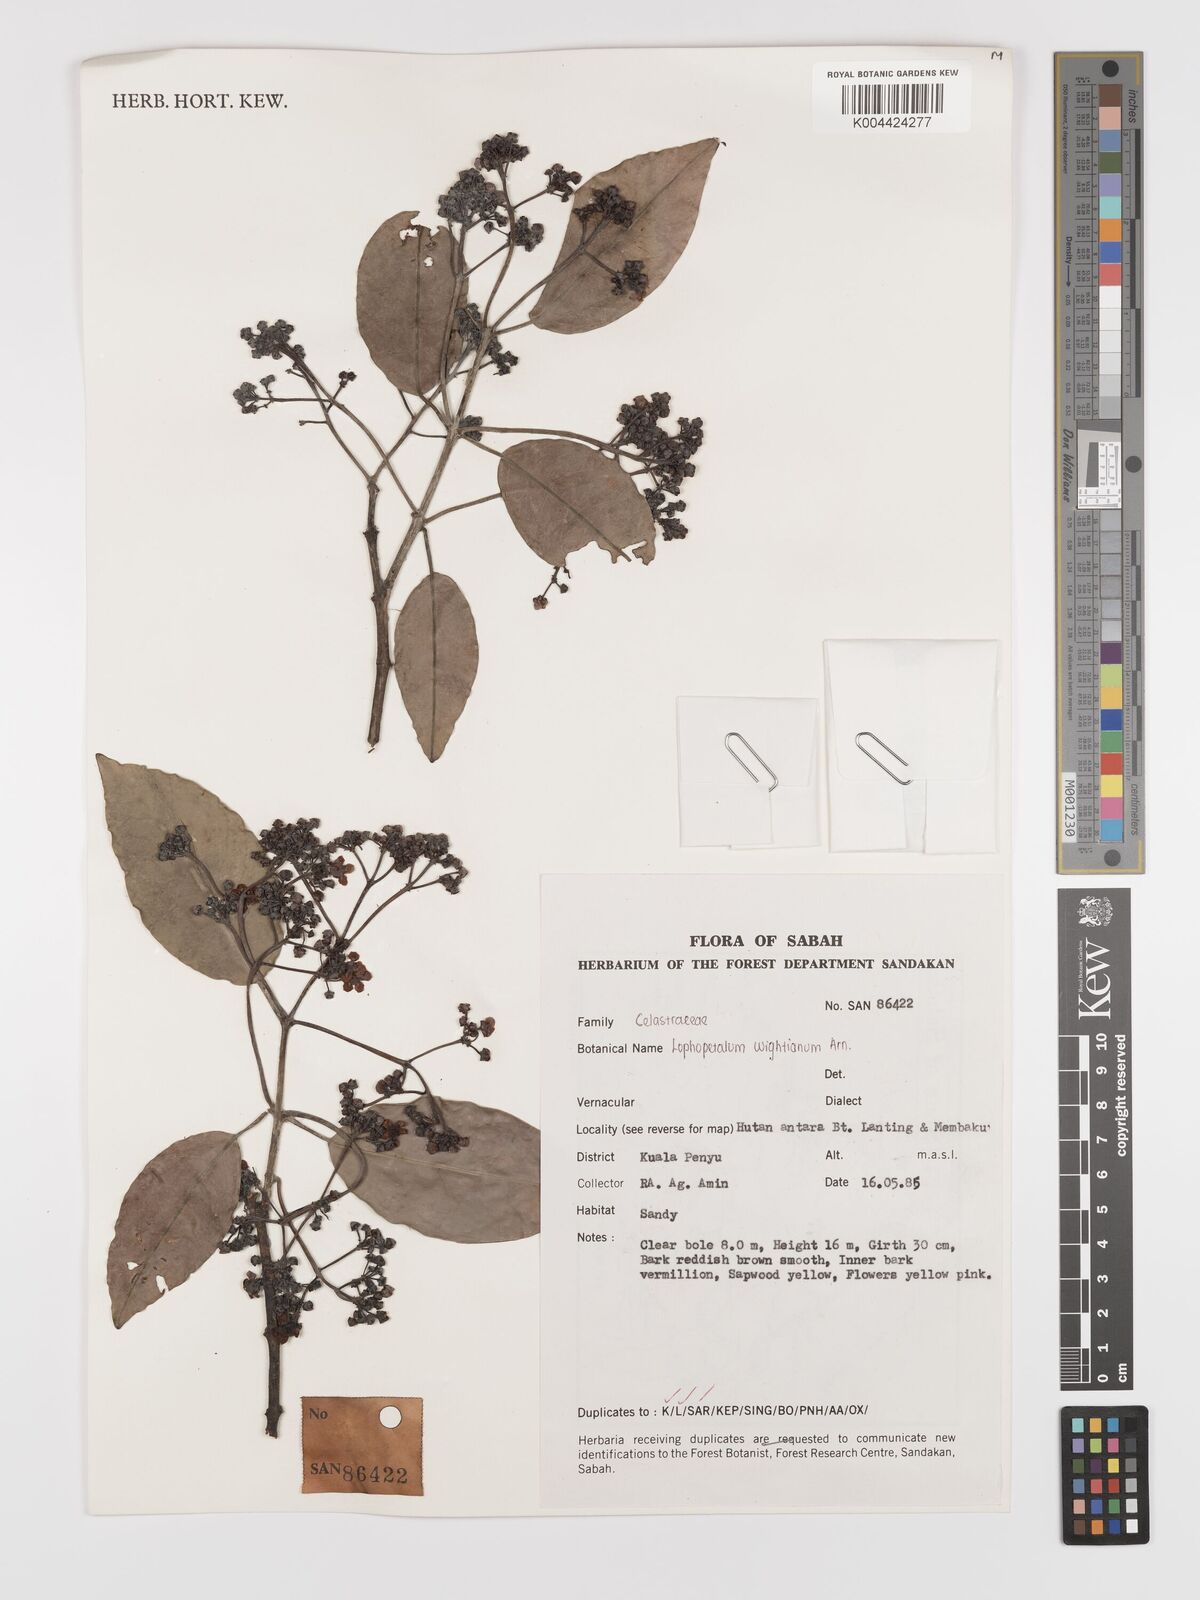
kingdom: Plantae
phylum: Tracheophyta
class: Magnoliopsida
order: Celastrales
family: Celastraceae
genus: Lophopetalum
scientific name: Lophopetalum wightianum
